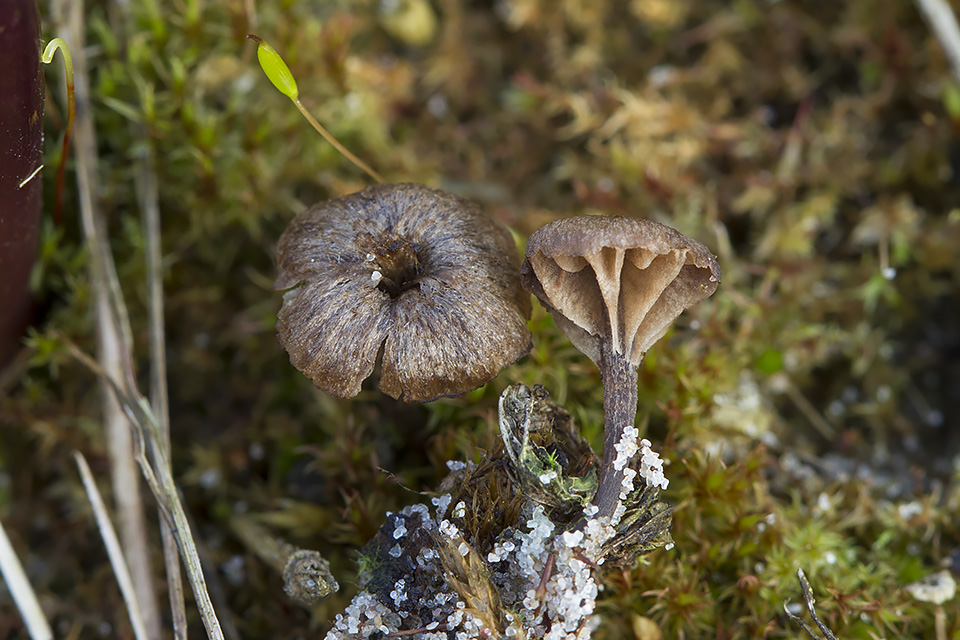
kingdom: Fungi
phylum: Basidiomycota
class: Agaricomycetes
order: Agaricales
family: Entolomataceae
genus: Entoloma
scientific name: Entoloma
